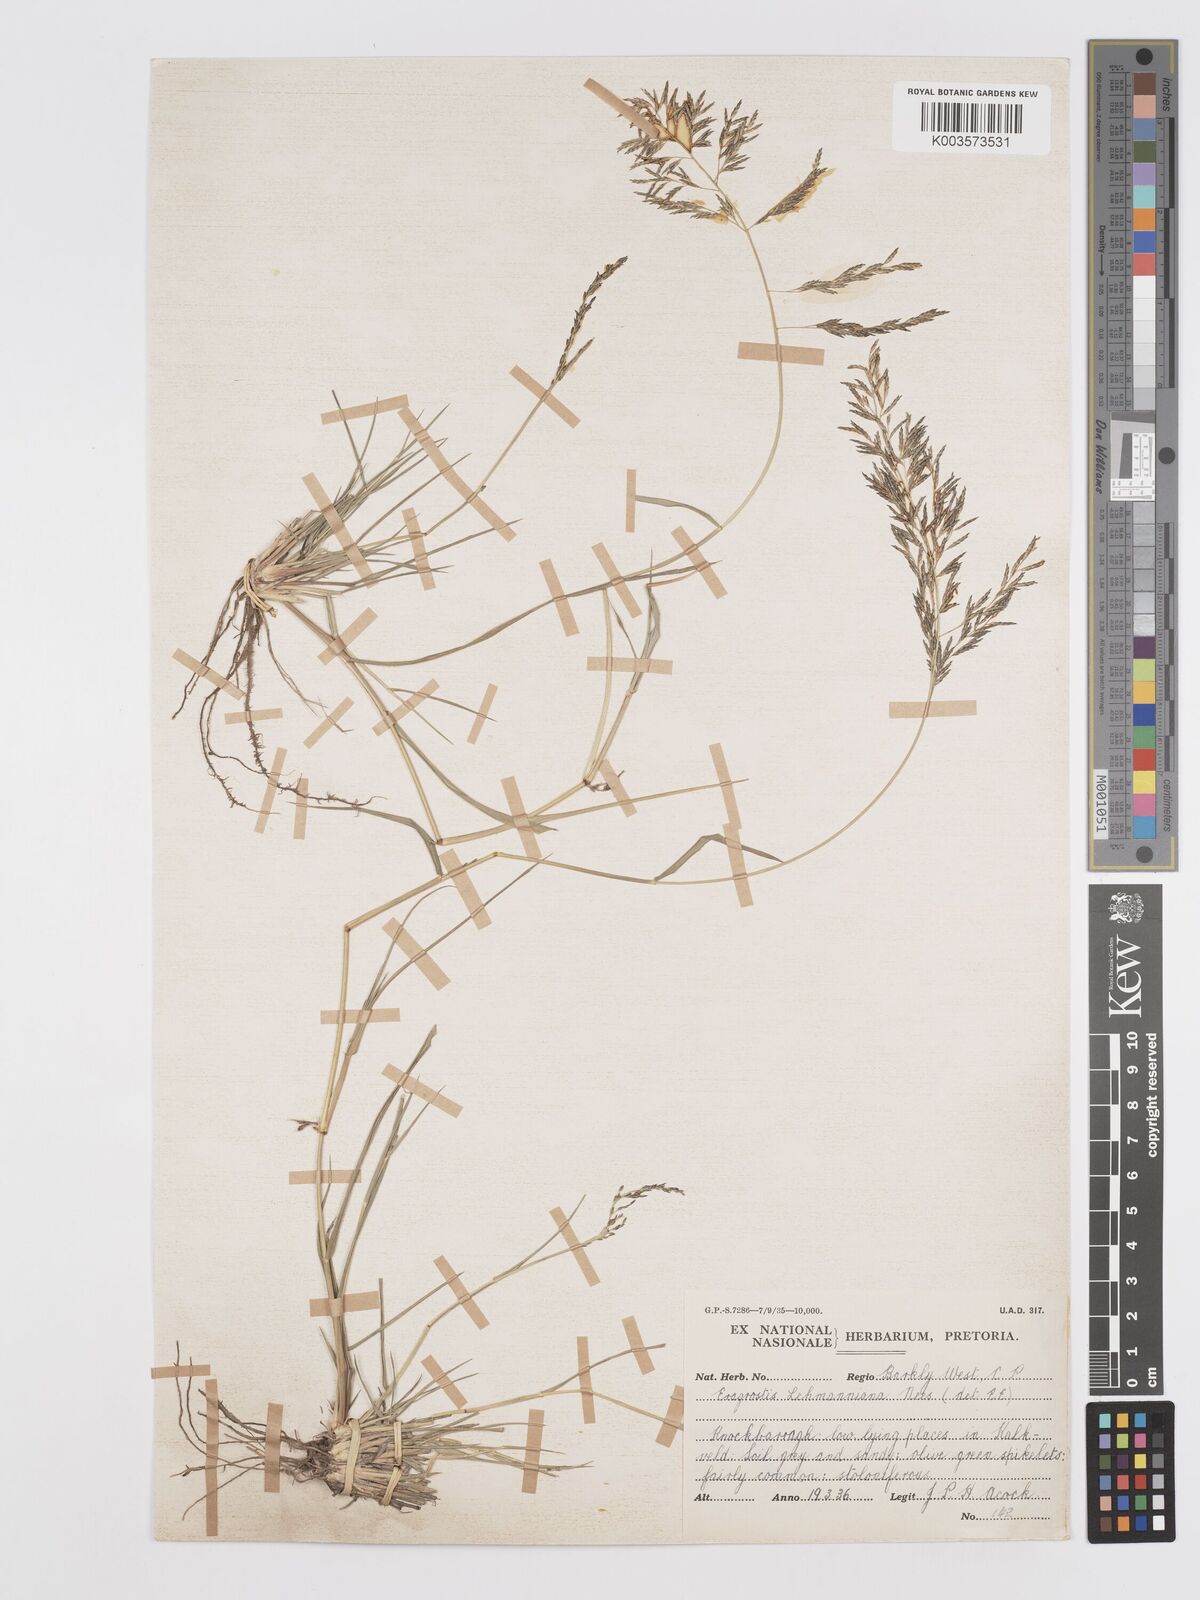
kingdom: Plantae
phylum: Tracheophyta
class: Liliopsida
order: Poales
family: Poaceae
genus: Eragrostis
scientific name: Eragrostis lehmanniana
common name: Lehmann lovegrass
